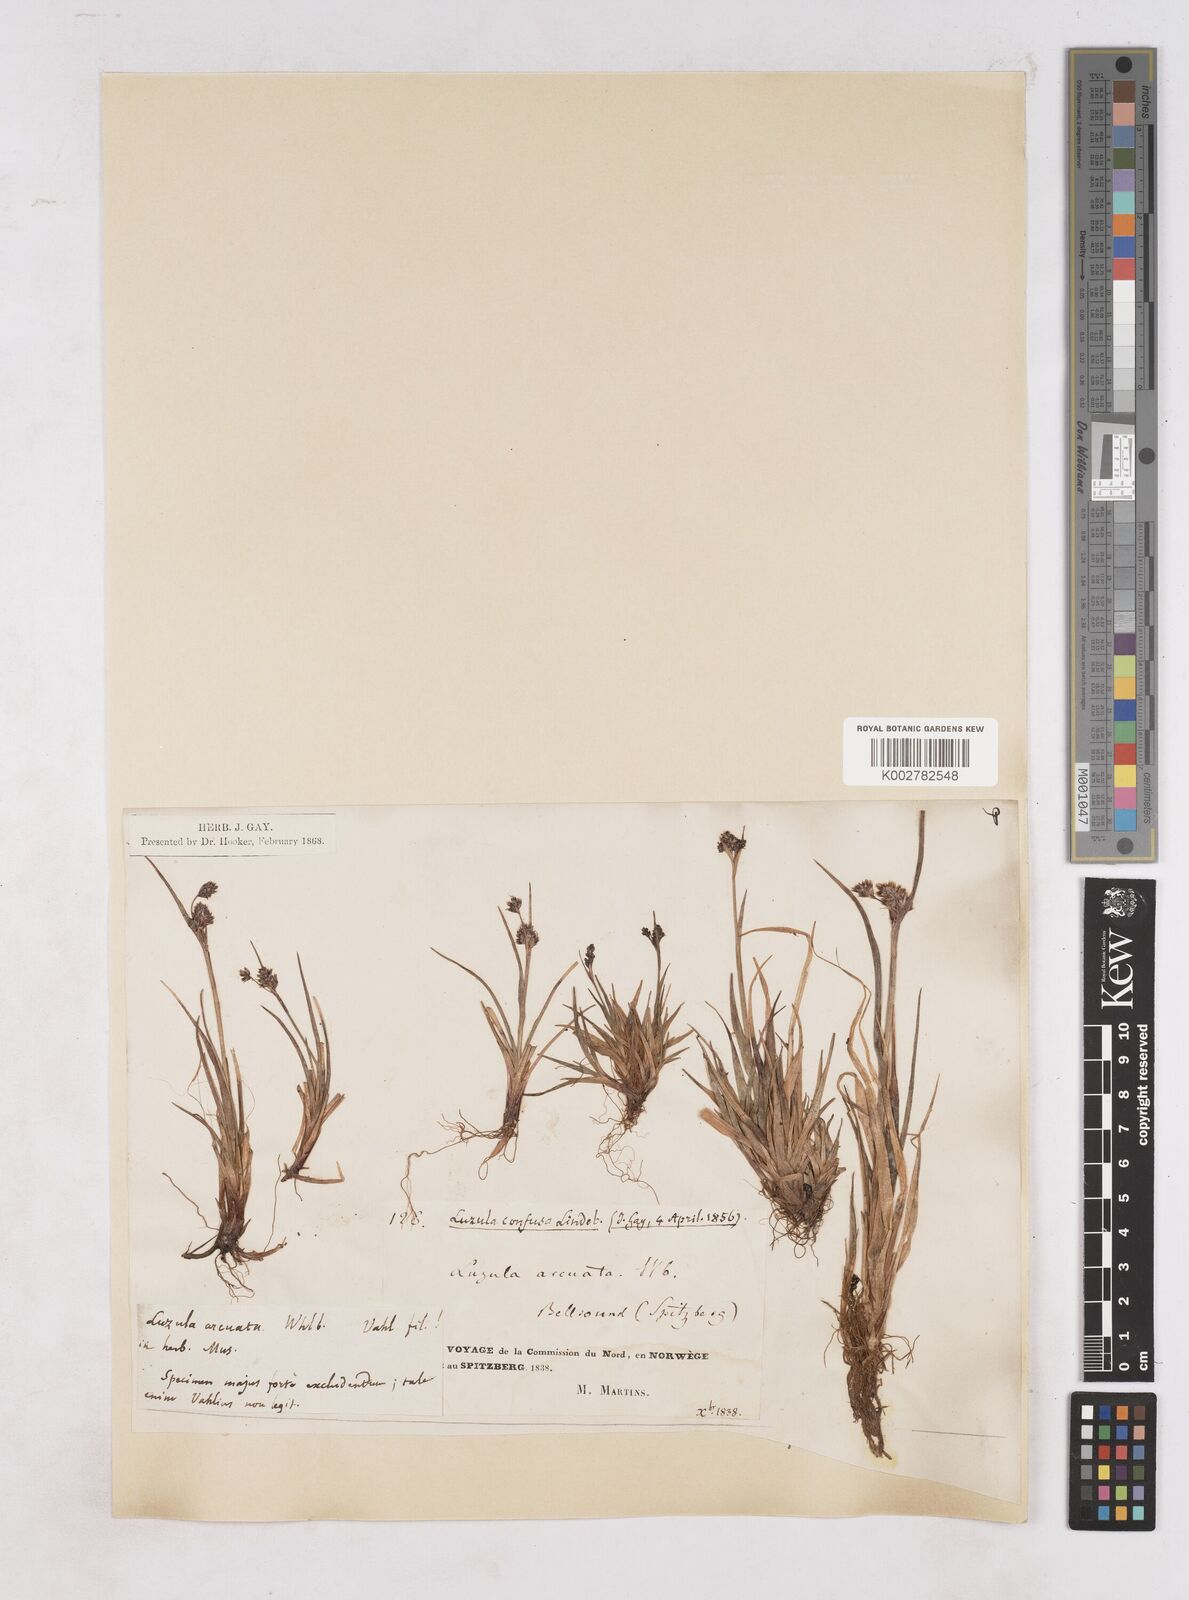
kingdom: Plantae
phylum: Tracheophyta
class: Liliopsida
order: Poales
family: Juncaceae
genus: Luzula
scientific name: Luzula confusa
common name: Northern wood rush
